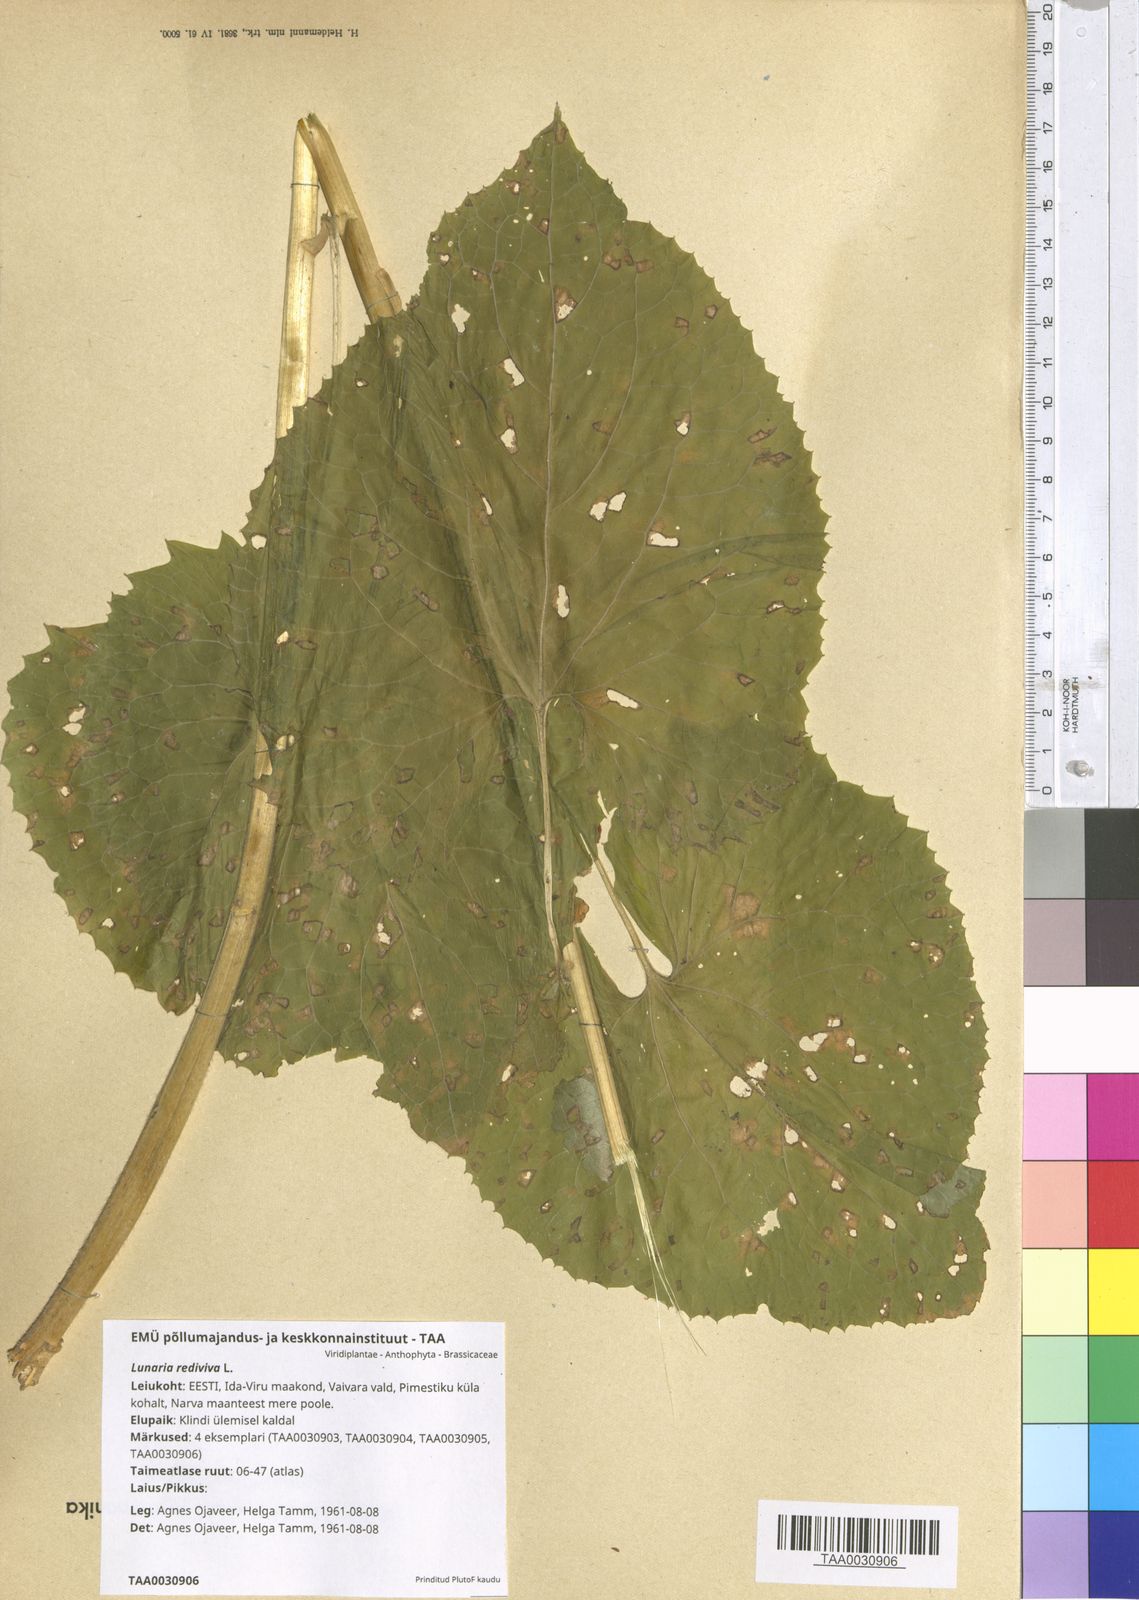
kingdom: Plantae
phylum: Tracheophyta
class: Magnoliopsida
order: Brassicales
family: Brassicaceae
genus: Lunaria
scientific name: Lunaria rediviva
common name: Perennial honesty
